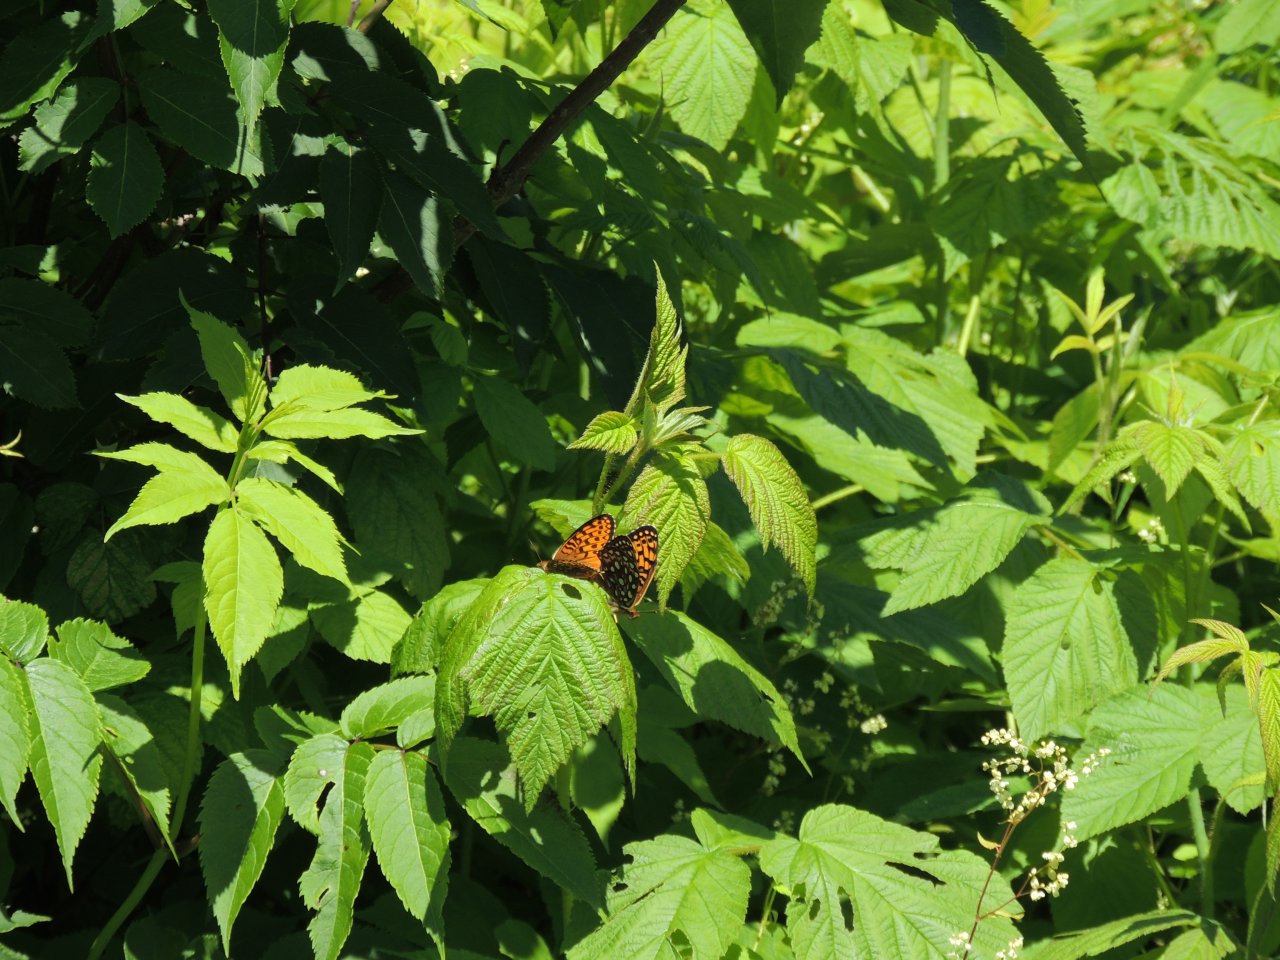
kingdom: Animalia
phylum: Arthropoda
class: Insecta
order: Lepidoptera
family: Nymphalidae
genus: Speyeria
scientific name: Speyeria atlantis
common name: Atlantis Fritillary
